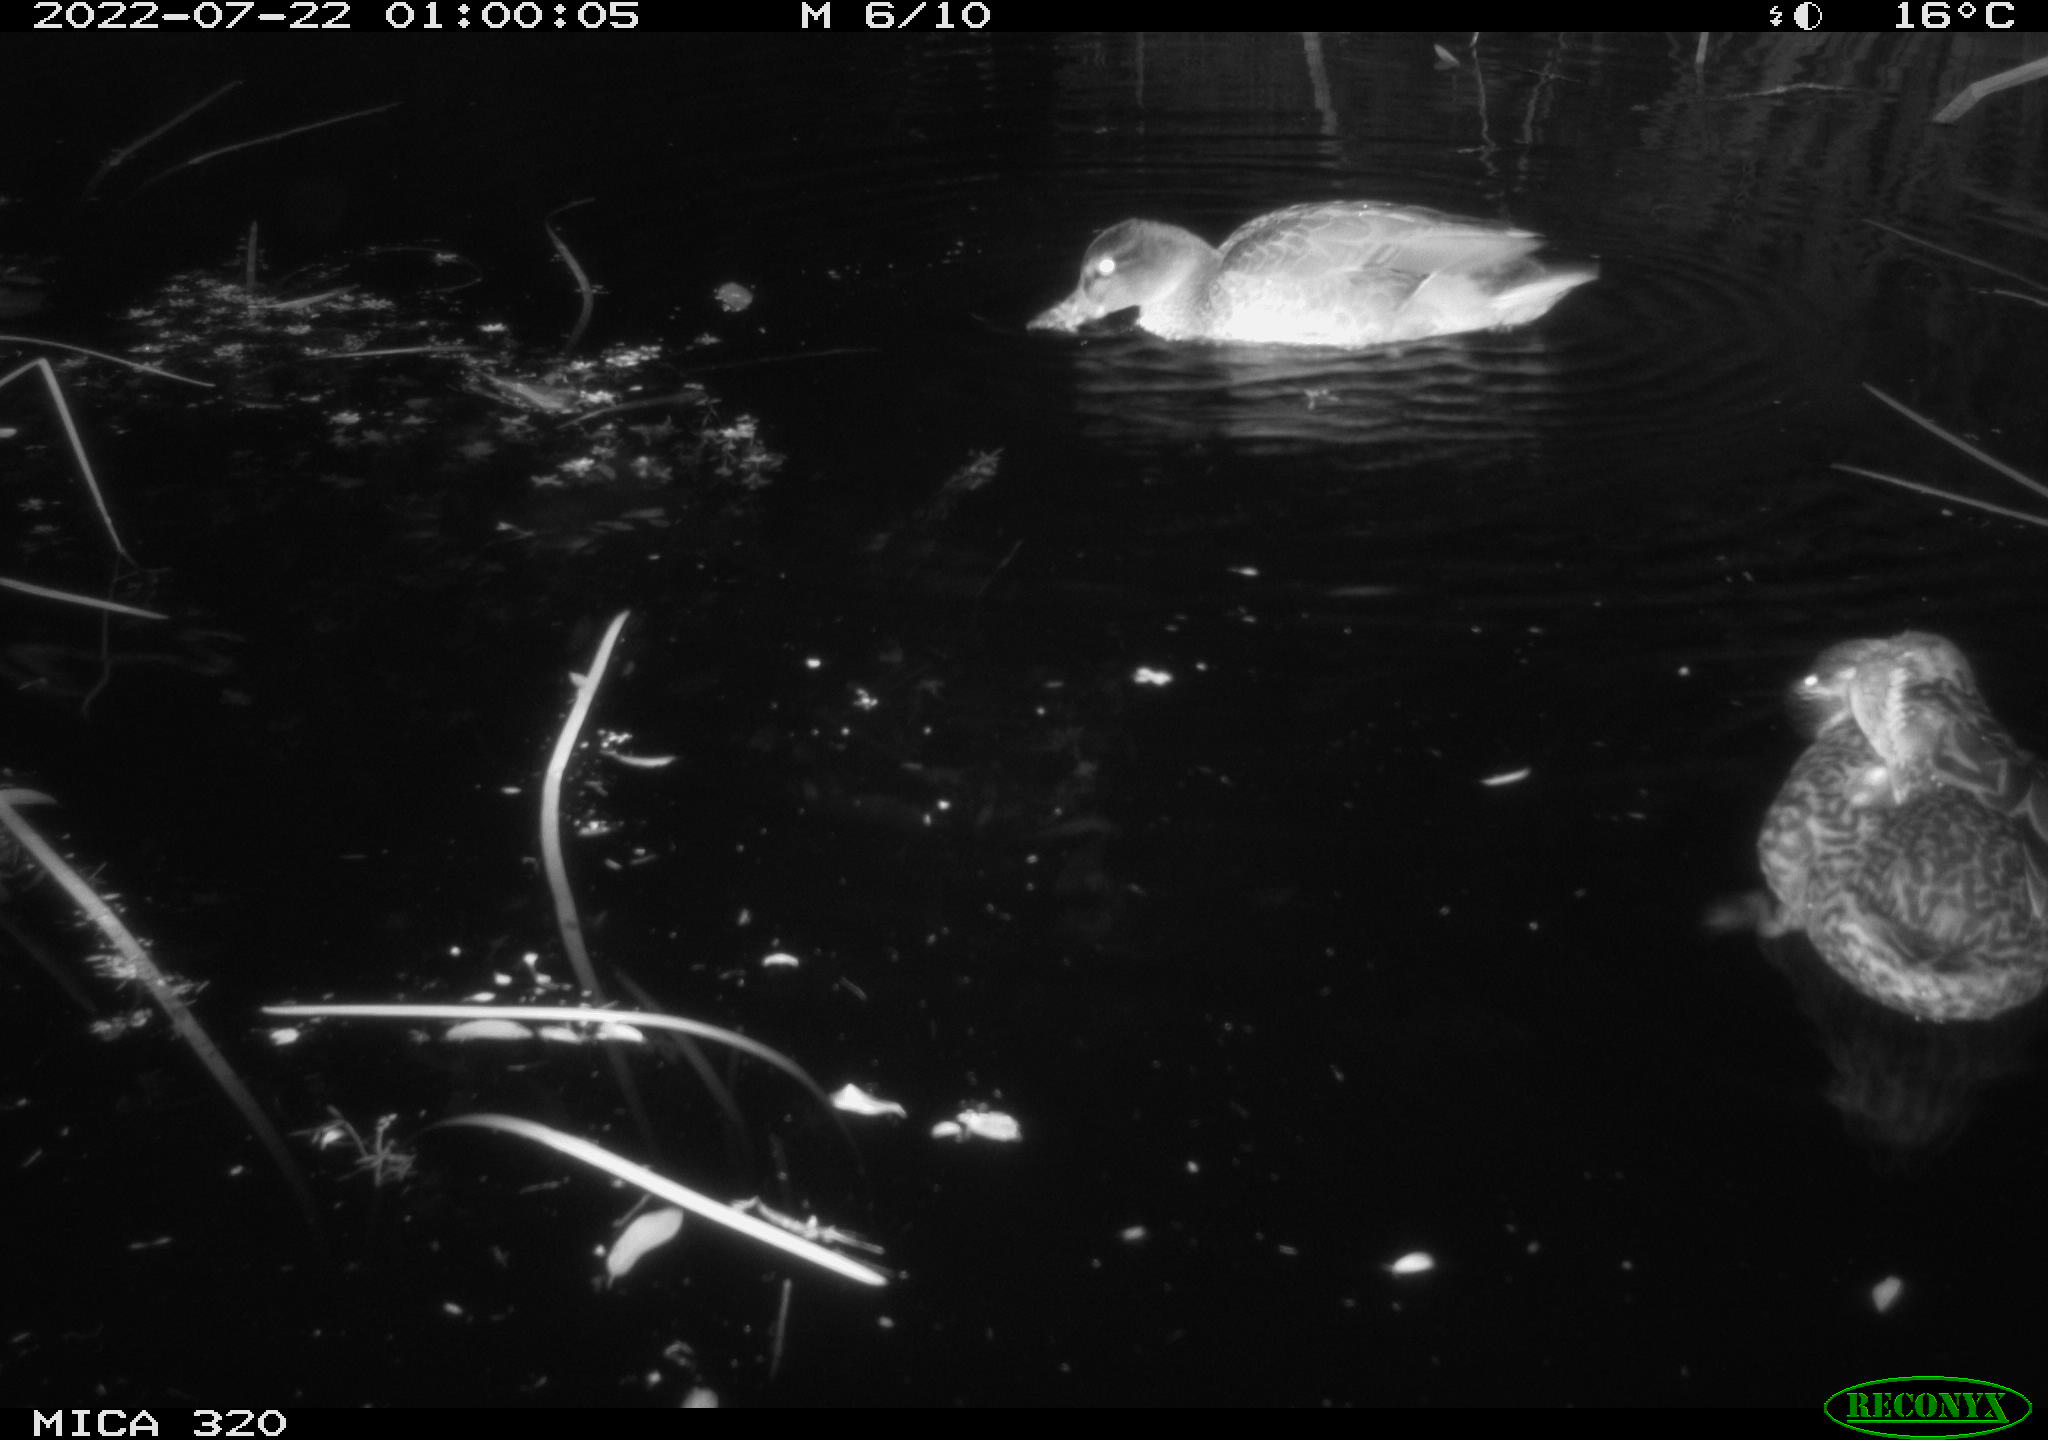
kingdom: Animalia
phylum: Chordata
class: Aves
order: Anseriformes
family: Anatidae
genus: Mareca
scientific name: Mareca strepera
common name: Gadwall
